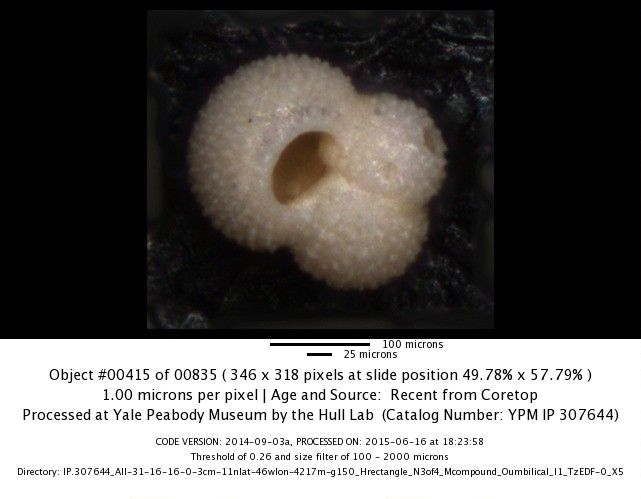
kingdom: Chromista
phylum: Foraminifera
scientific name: Foraminifera
